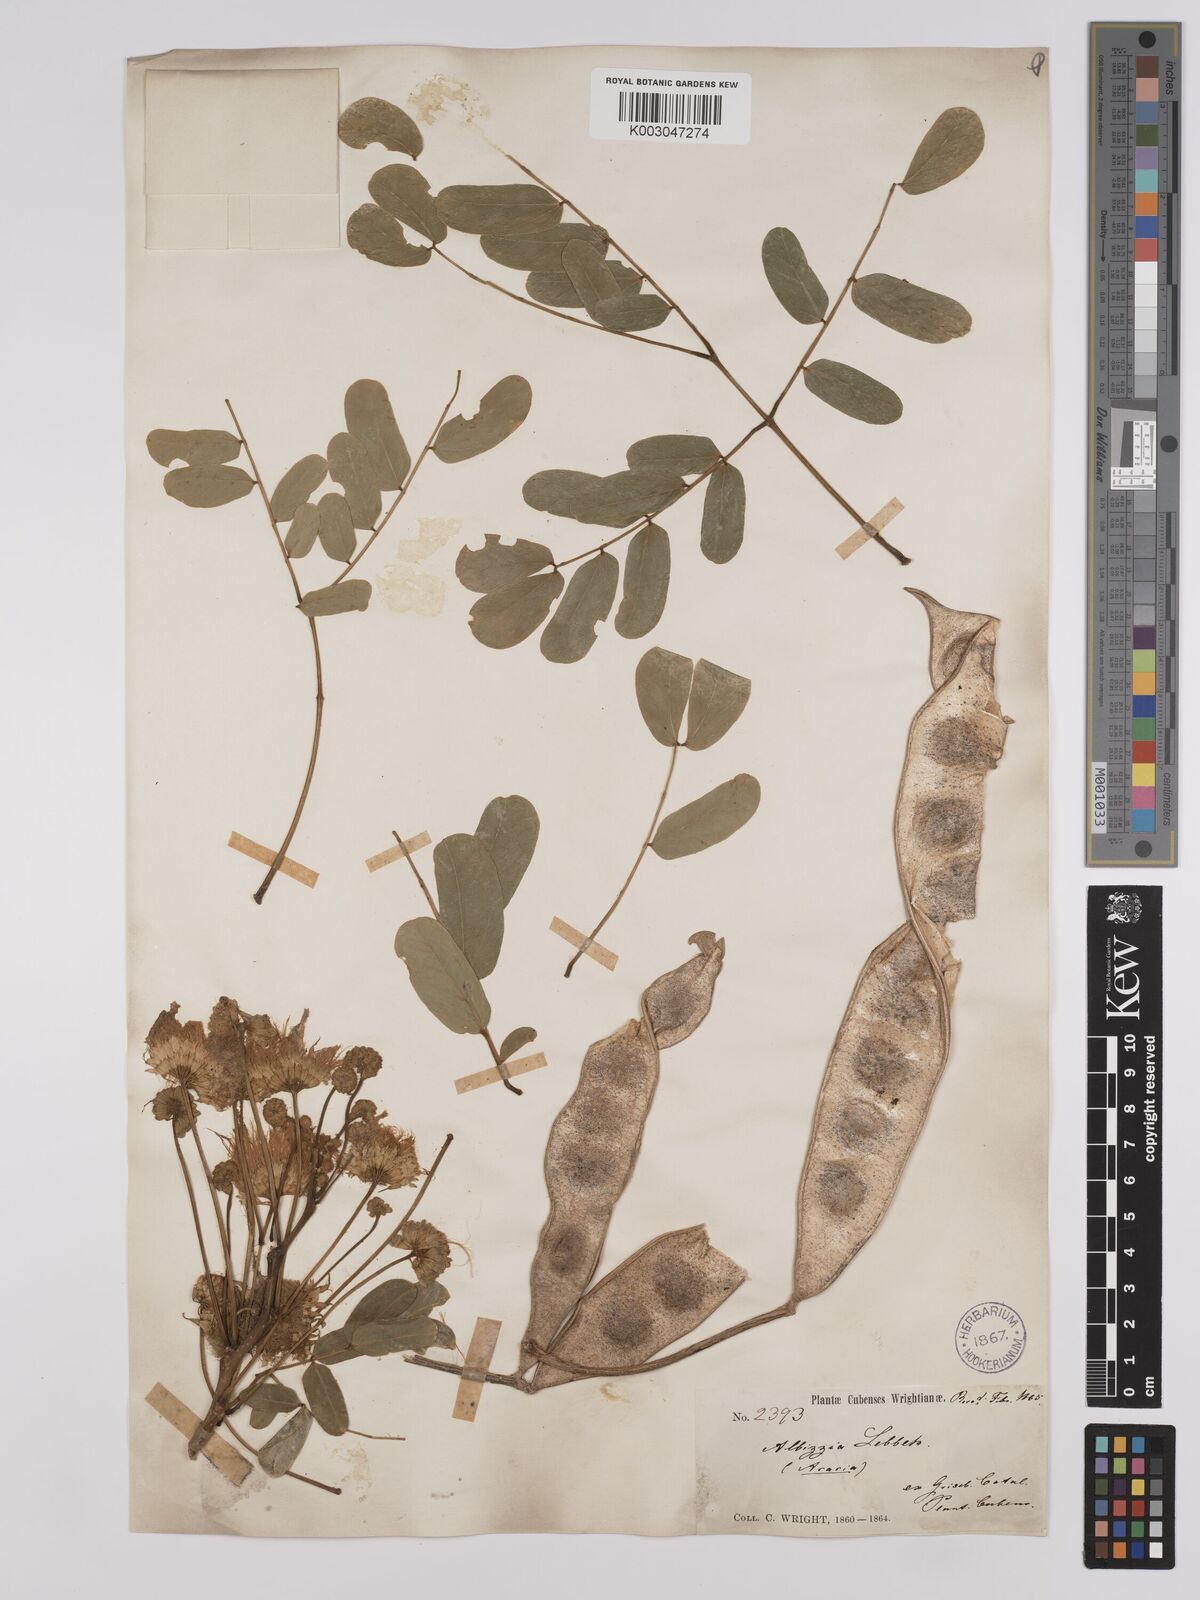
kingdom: Plantae
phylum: Tracheophyta
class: Magnoliopsida
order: Fabales
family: Fabaceae
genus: Albizia
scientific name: Albizia lebbeck
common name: Woman's tongue
